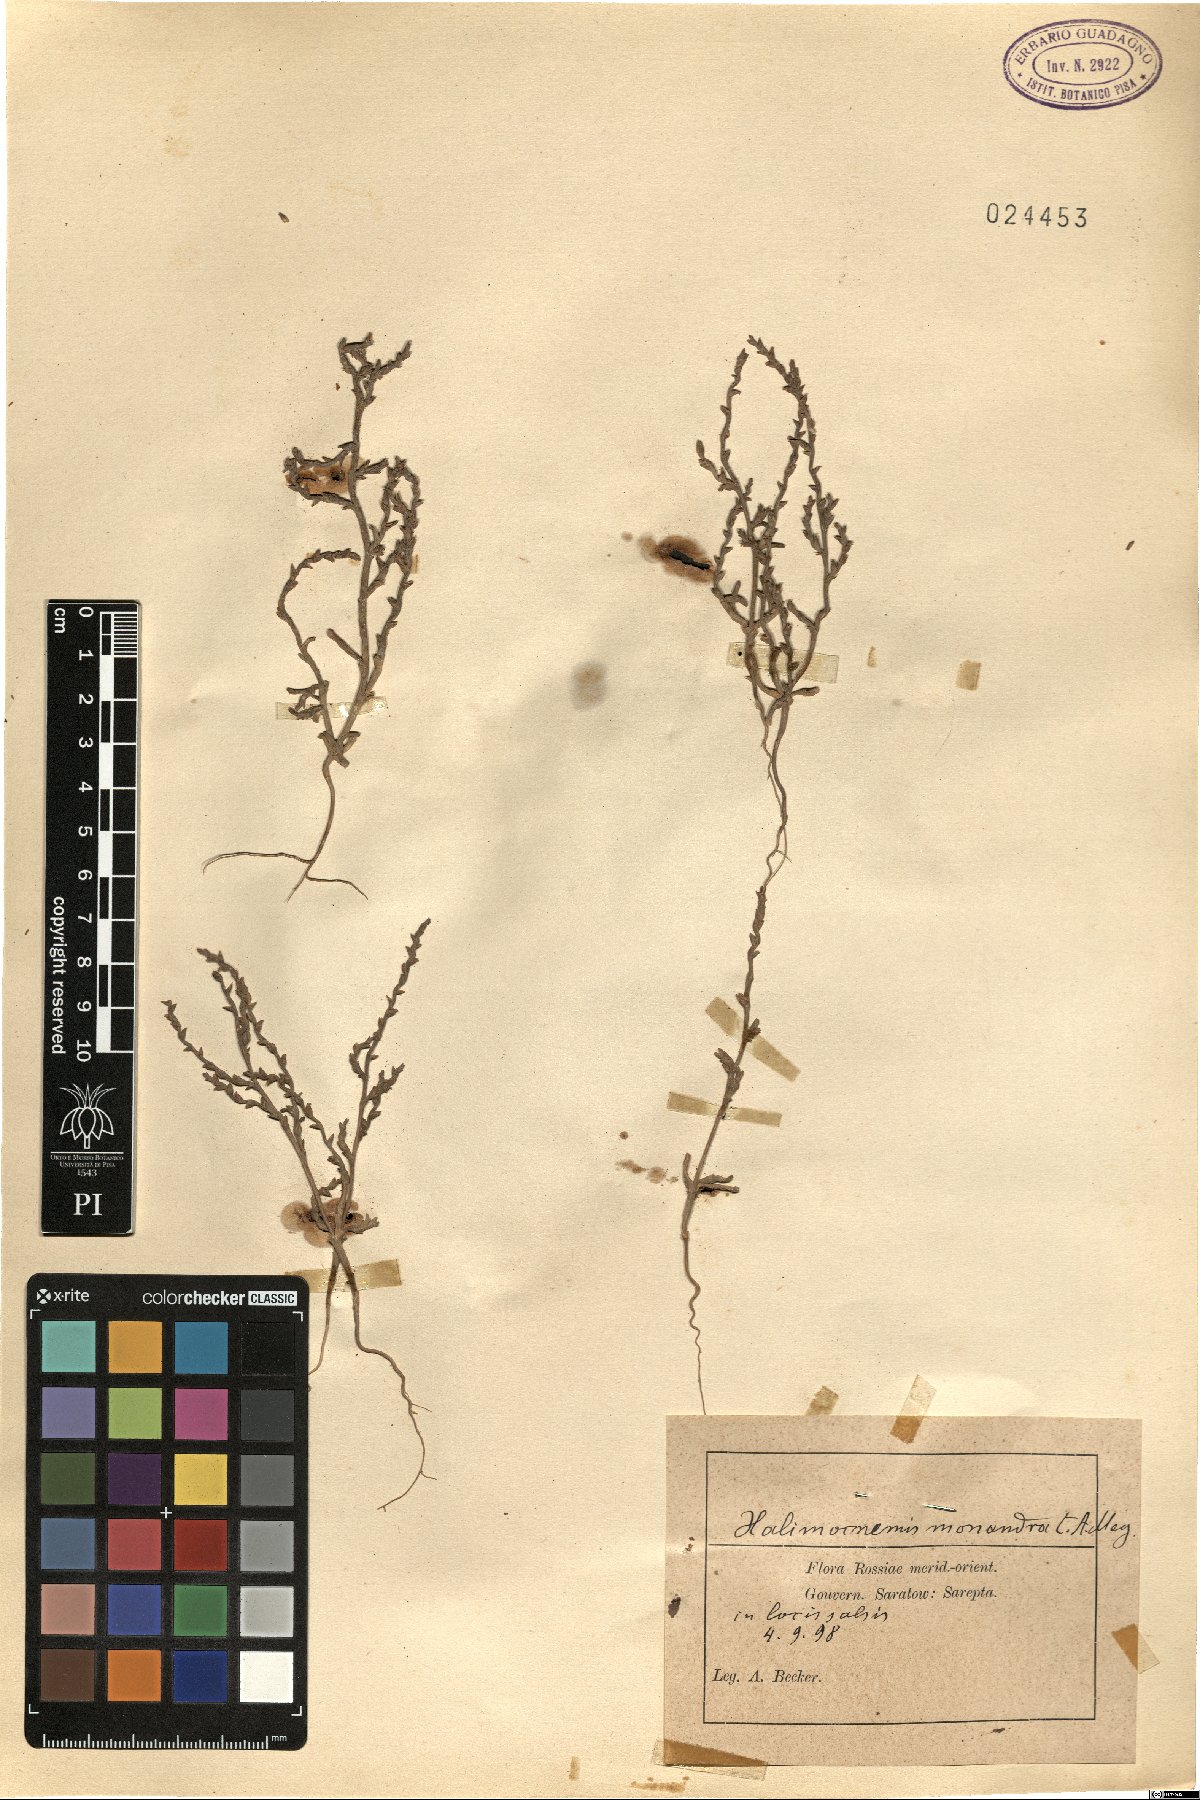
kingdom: Plantae
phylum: Tracheophyta
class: Magnoliopsida
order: Caryophyllales
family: Amaranthaceae
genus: Petrosimonia
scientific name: Petrosimonia monandra
